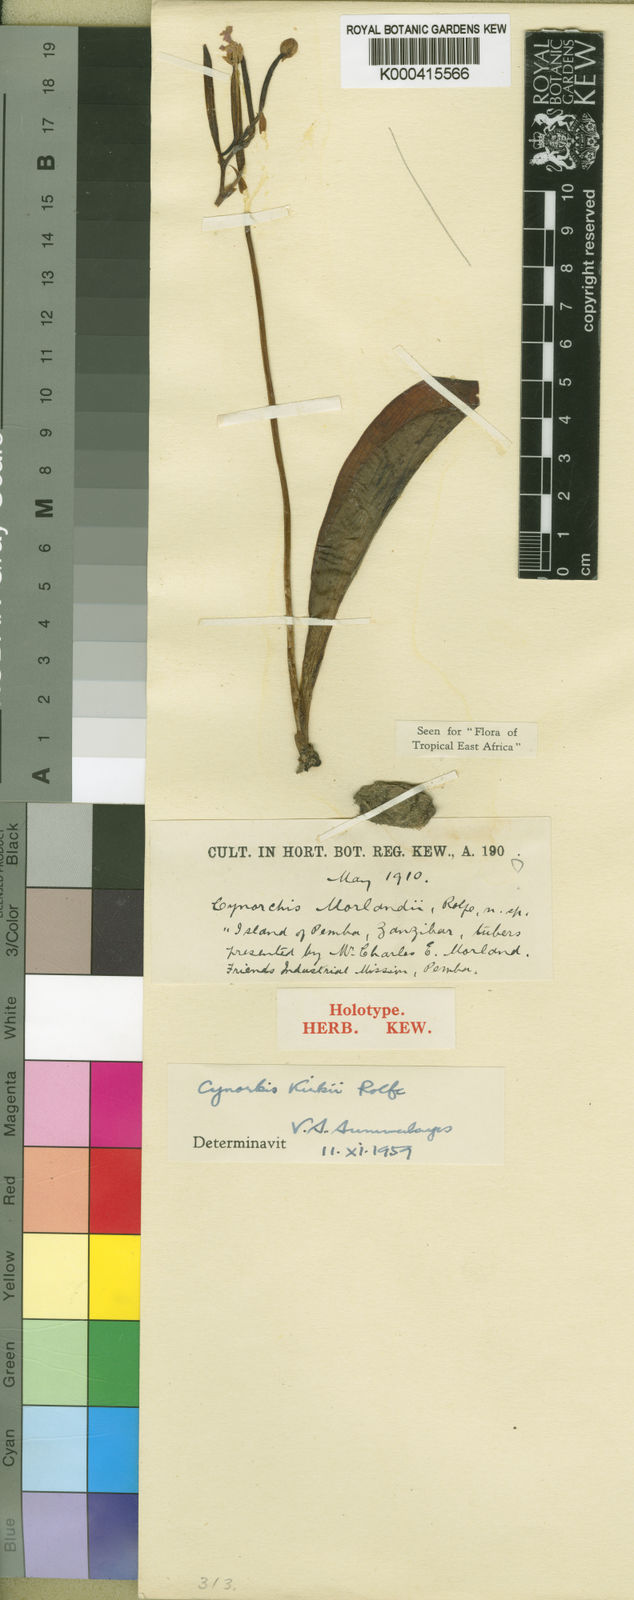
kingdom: Plantae
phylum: Tracheophyta
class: Liliopsida
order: Asparagales
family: Orchidaceae
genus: Cynorkis
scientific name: Cynorkis kirkii
